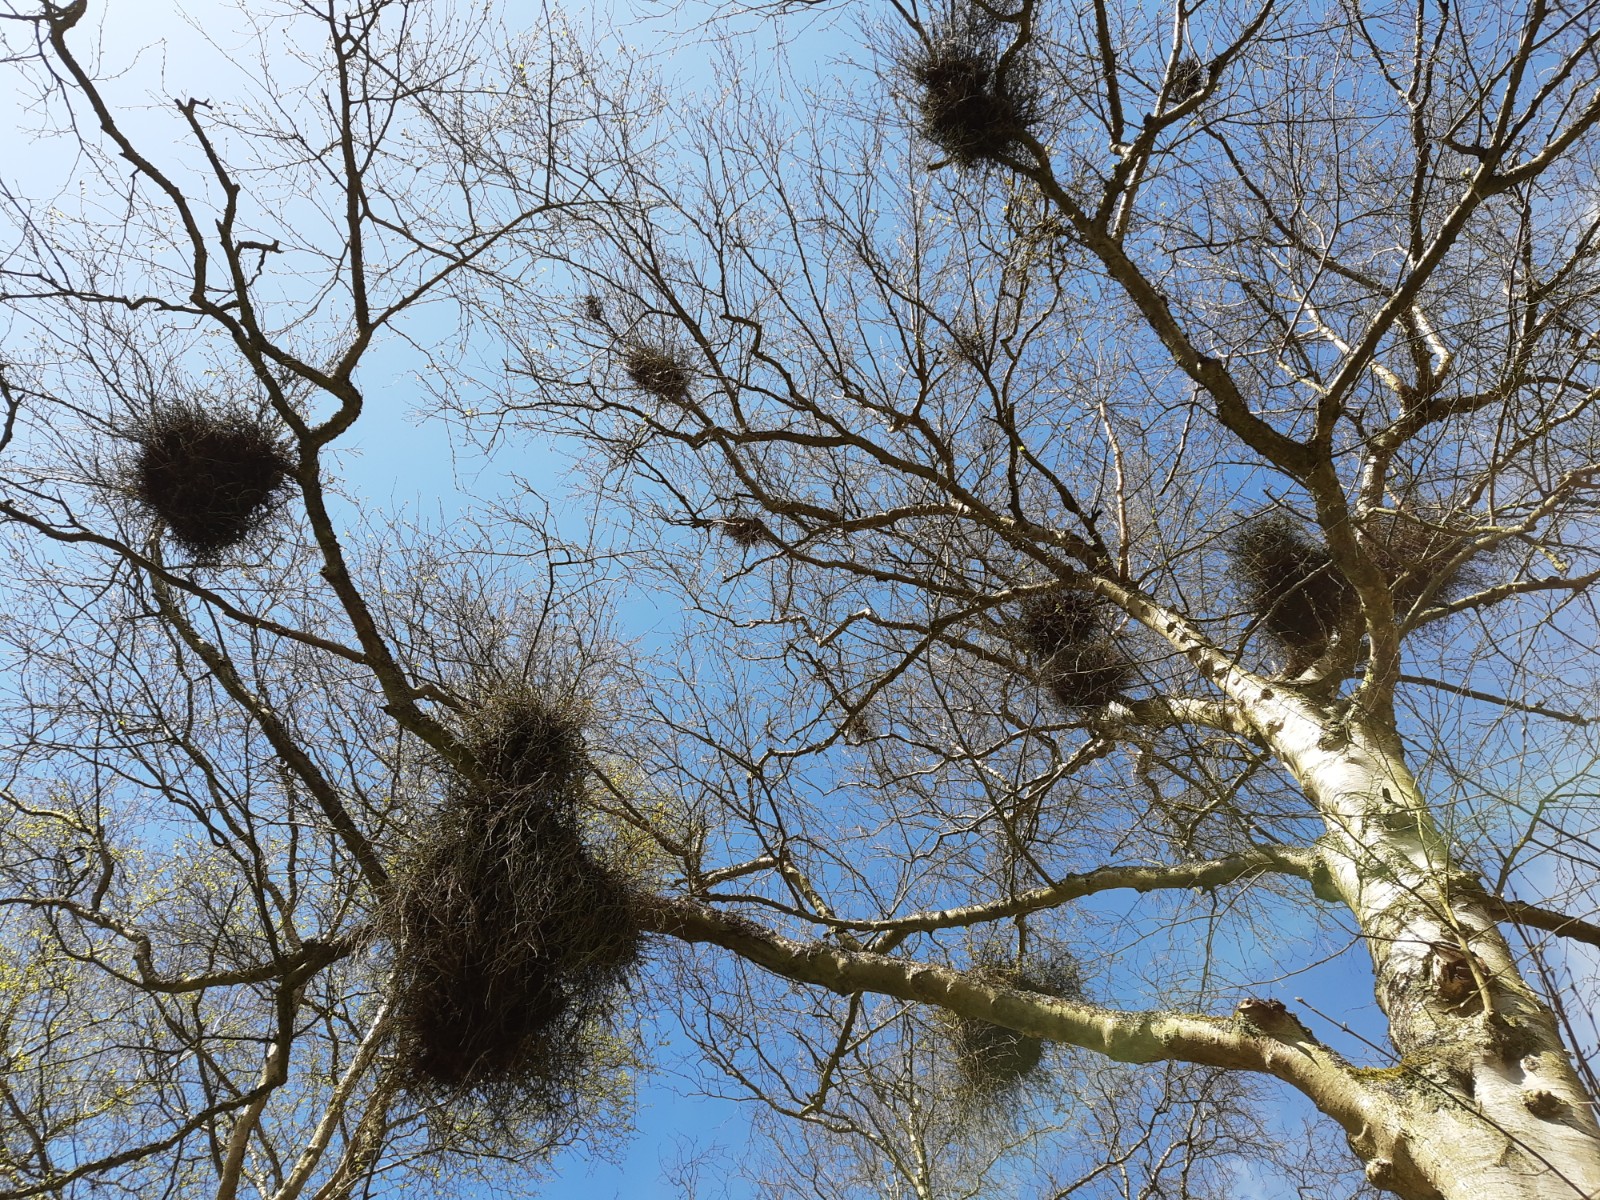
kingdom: Fungi
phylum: Ascomycota
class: Taphrinomycetes
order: Taphrinales
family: Taphrinaceae
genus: Taphrina
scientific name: Taphrina betulina
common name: hekse-sækdug
